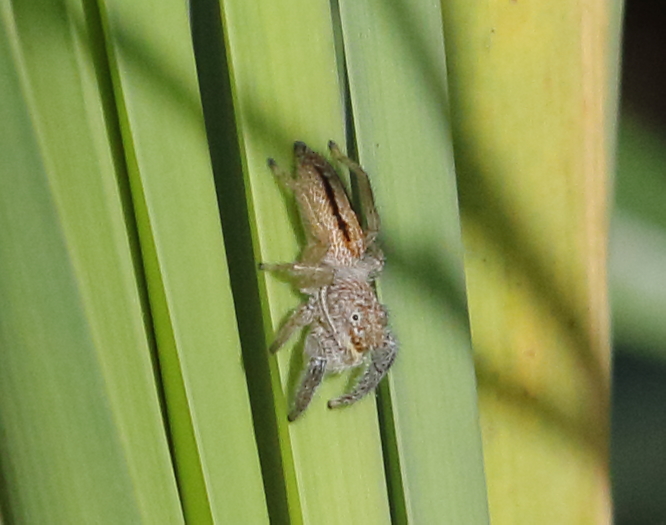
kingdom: Animalia
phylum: Arthropoda
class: Arachnida
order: Araneae
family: Salticidae
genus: Marpissa
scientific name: Marpissa radiata
